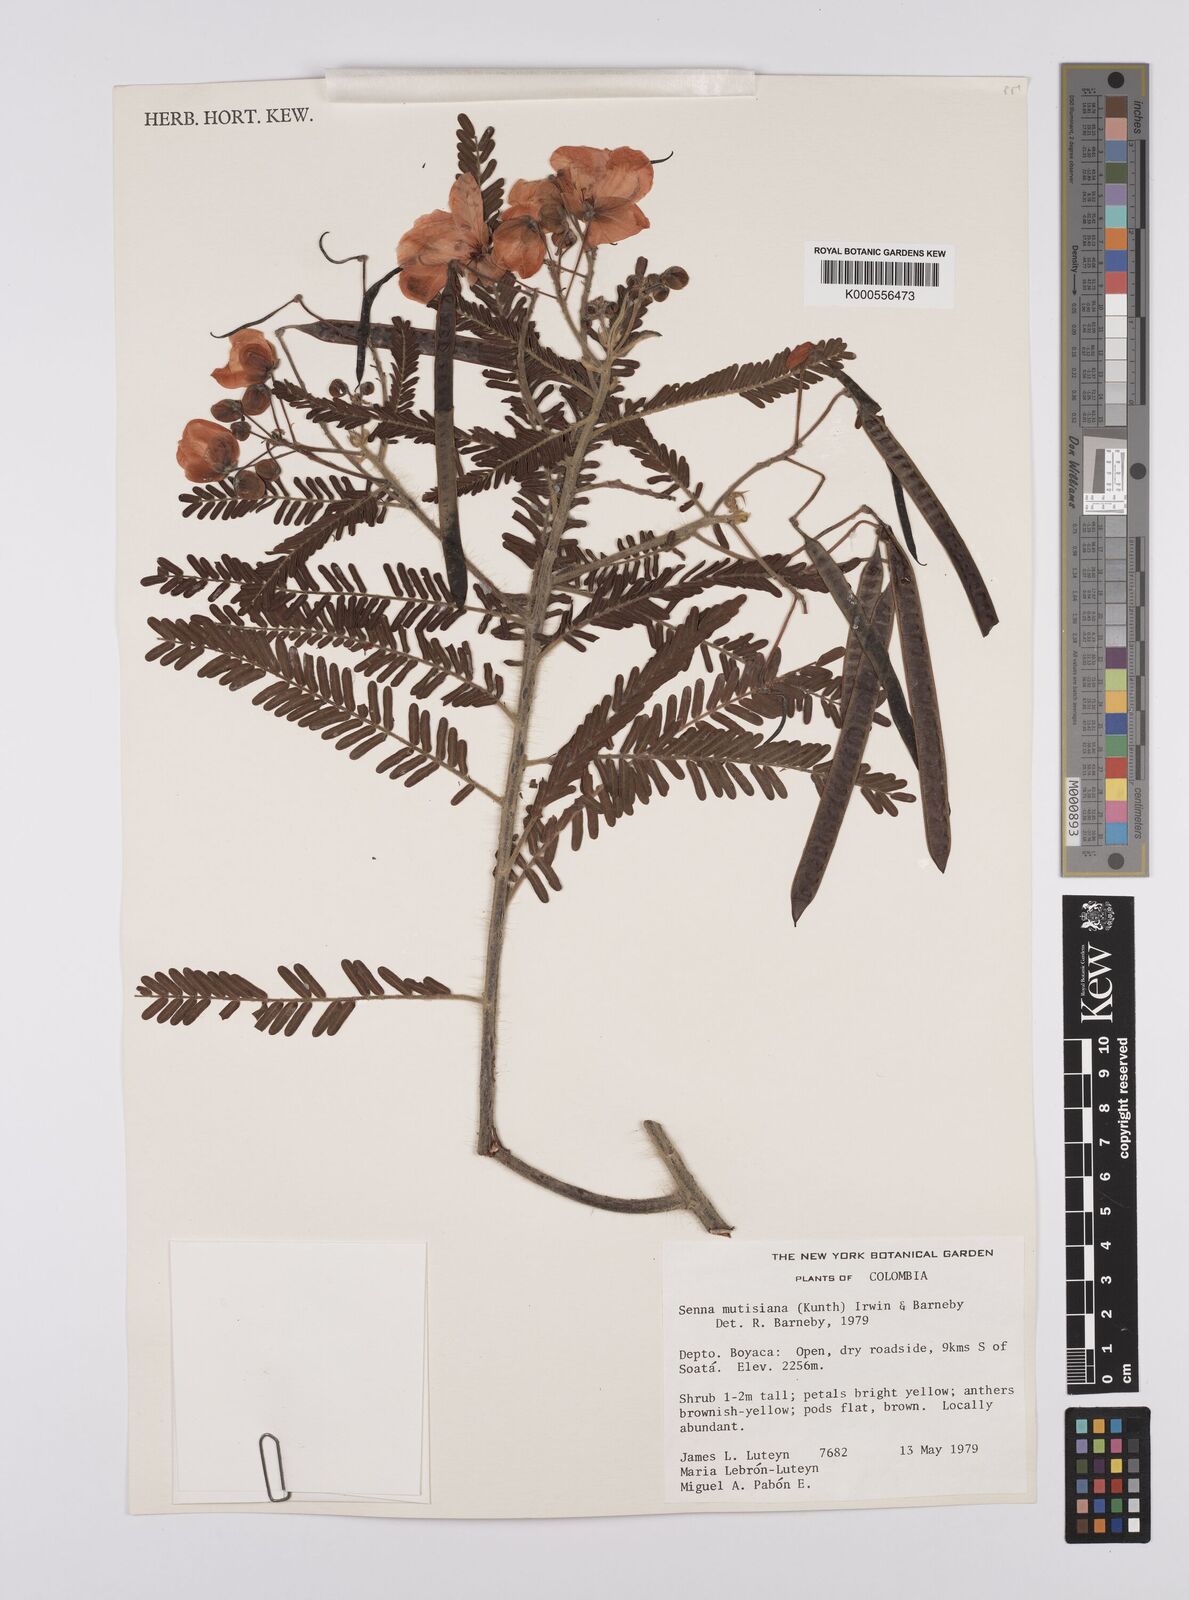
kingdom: Plantae
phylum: Tracheophyta
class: Magnoliopsida
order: Fabales
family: Fabaceae
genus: Senna
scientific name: Senna mutisiana
